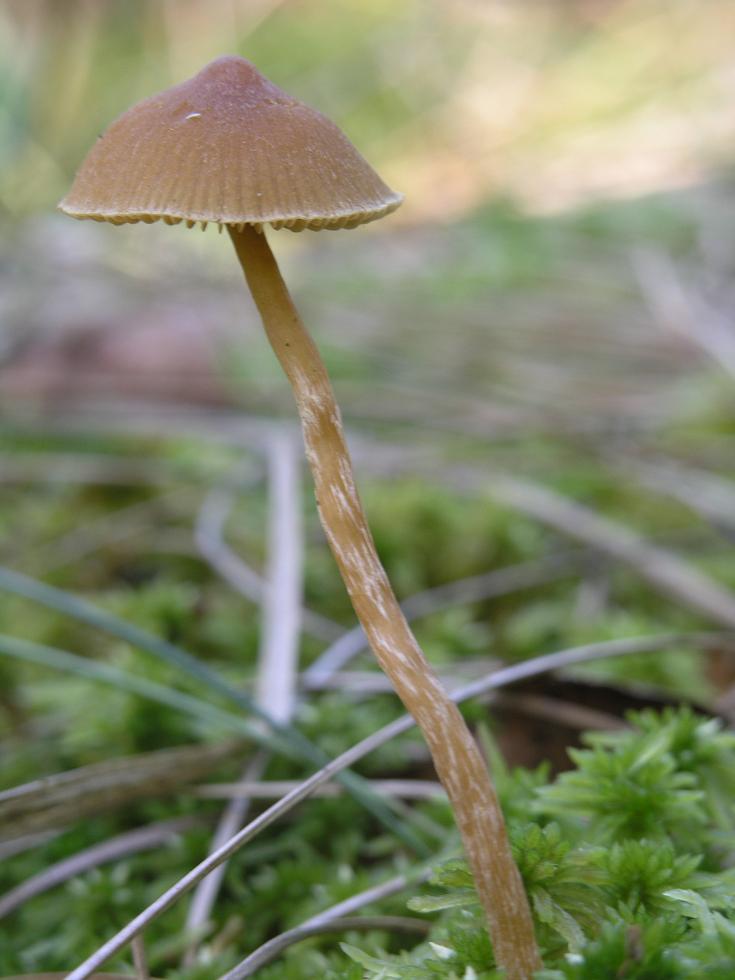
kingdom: Fungi
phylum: Basidiomycota
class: Agaricomycetes
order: Agaricales
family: Hymenogastraceae
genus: Galerina
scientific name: Galerina paludosa
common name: mose-hjelmhat
